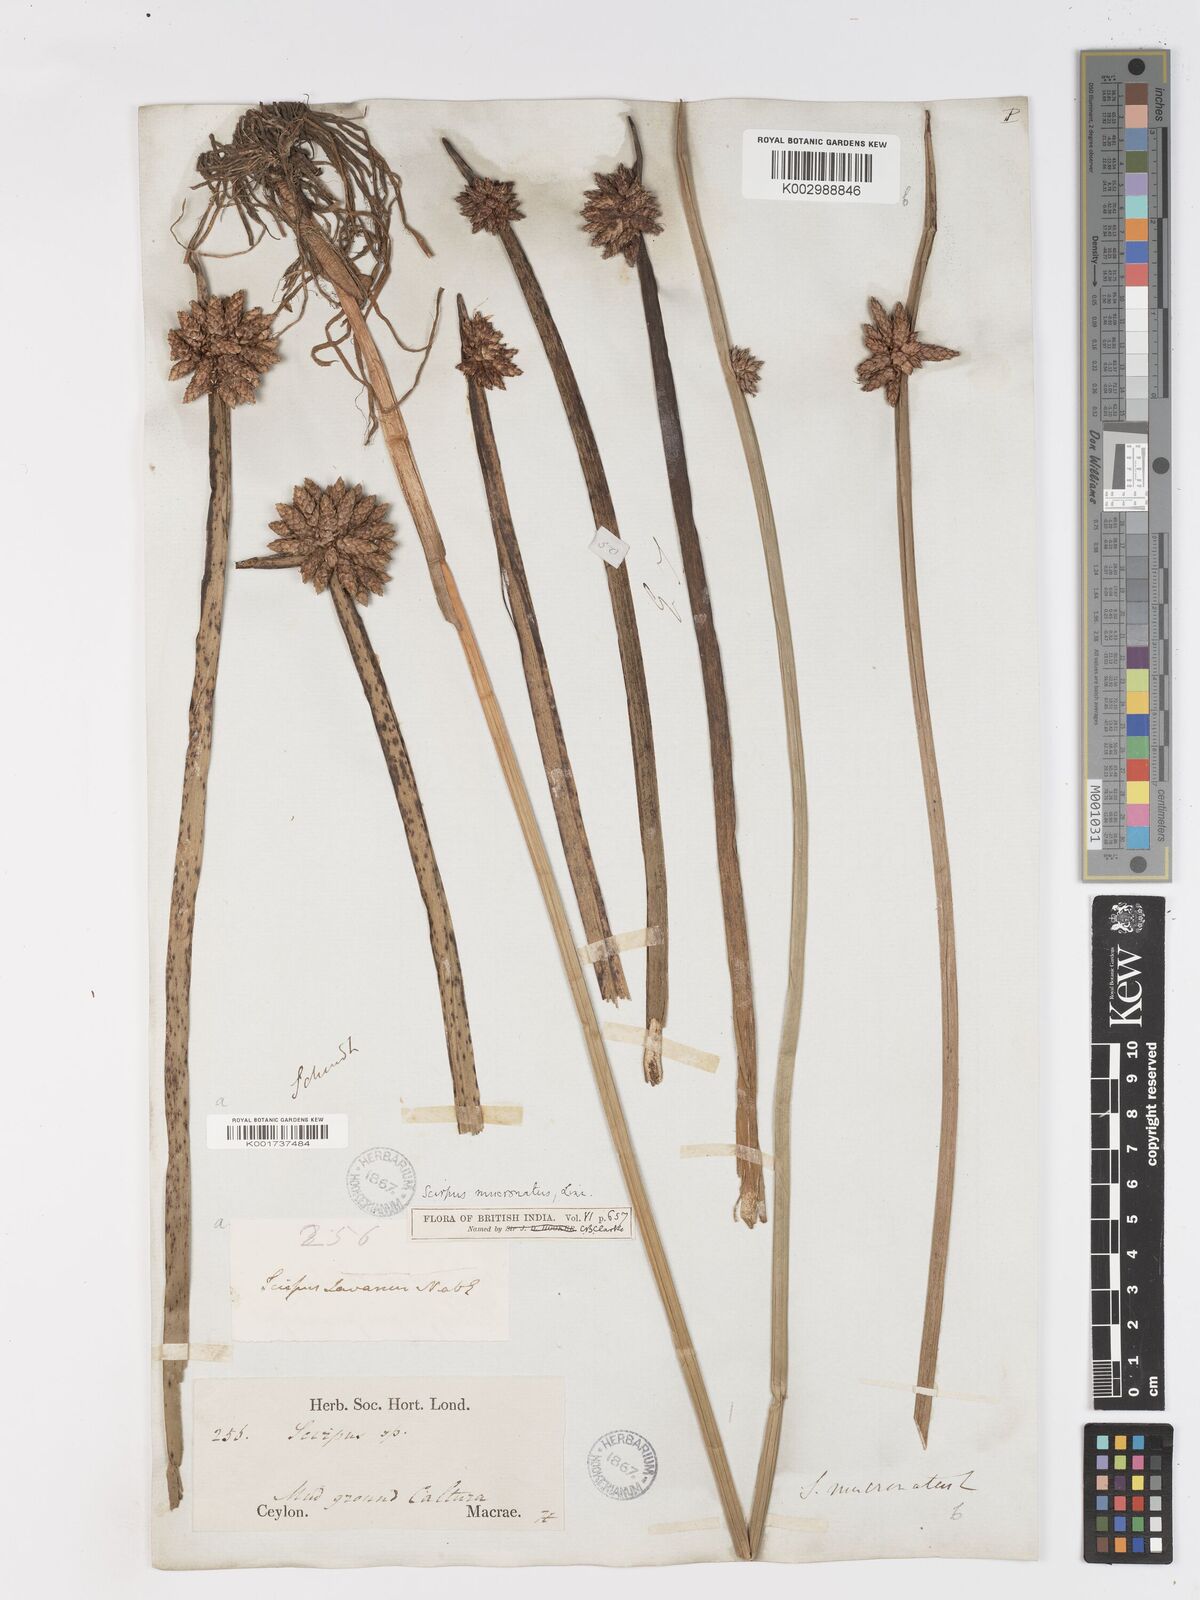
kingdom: Plantae
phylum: Tracheophyta
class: Liliopsida
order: Poales
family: Cyperaceae
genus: Schoenoplectiella
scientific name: Schoenoplectiella mucronata
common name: Bog bulrush
